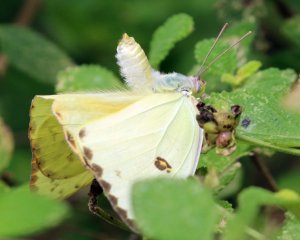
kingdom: Animalia
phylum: Arthropoda
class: Insecta
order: Lepidoptera
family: Pieridae
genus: Phoebis
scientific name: Phoebis sennae
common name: Cloudless Sulphur
